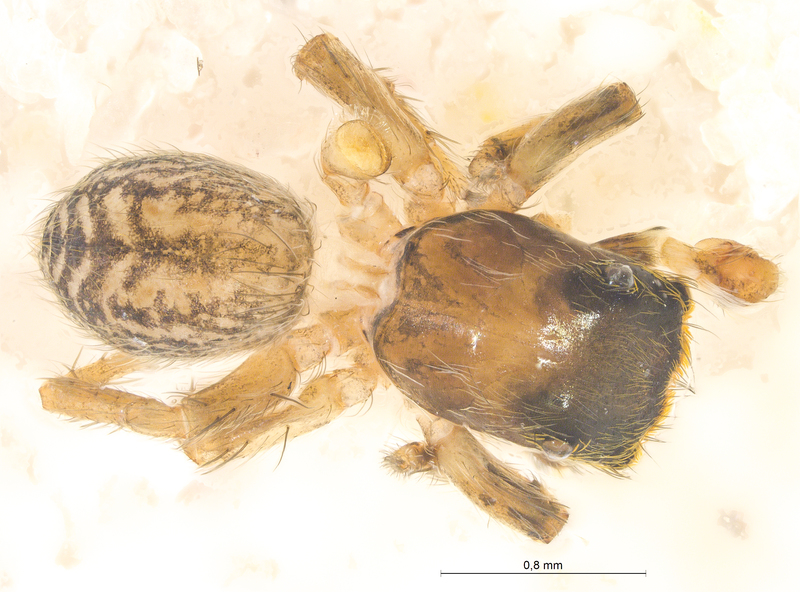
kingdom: Animalia
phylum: Arthropoda
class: Arachnida
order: Araneae
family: Salticidae
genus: Euophrys
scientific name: Euophrys frontalis
